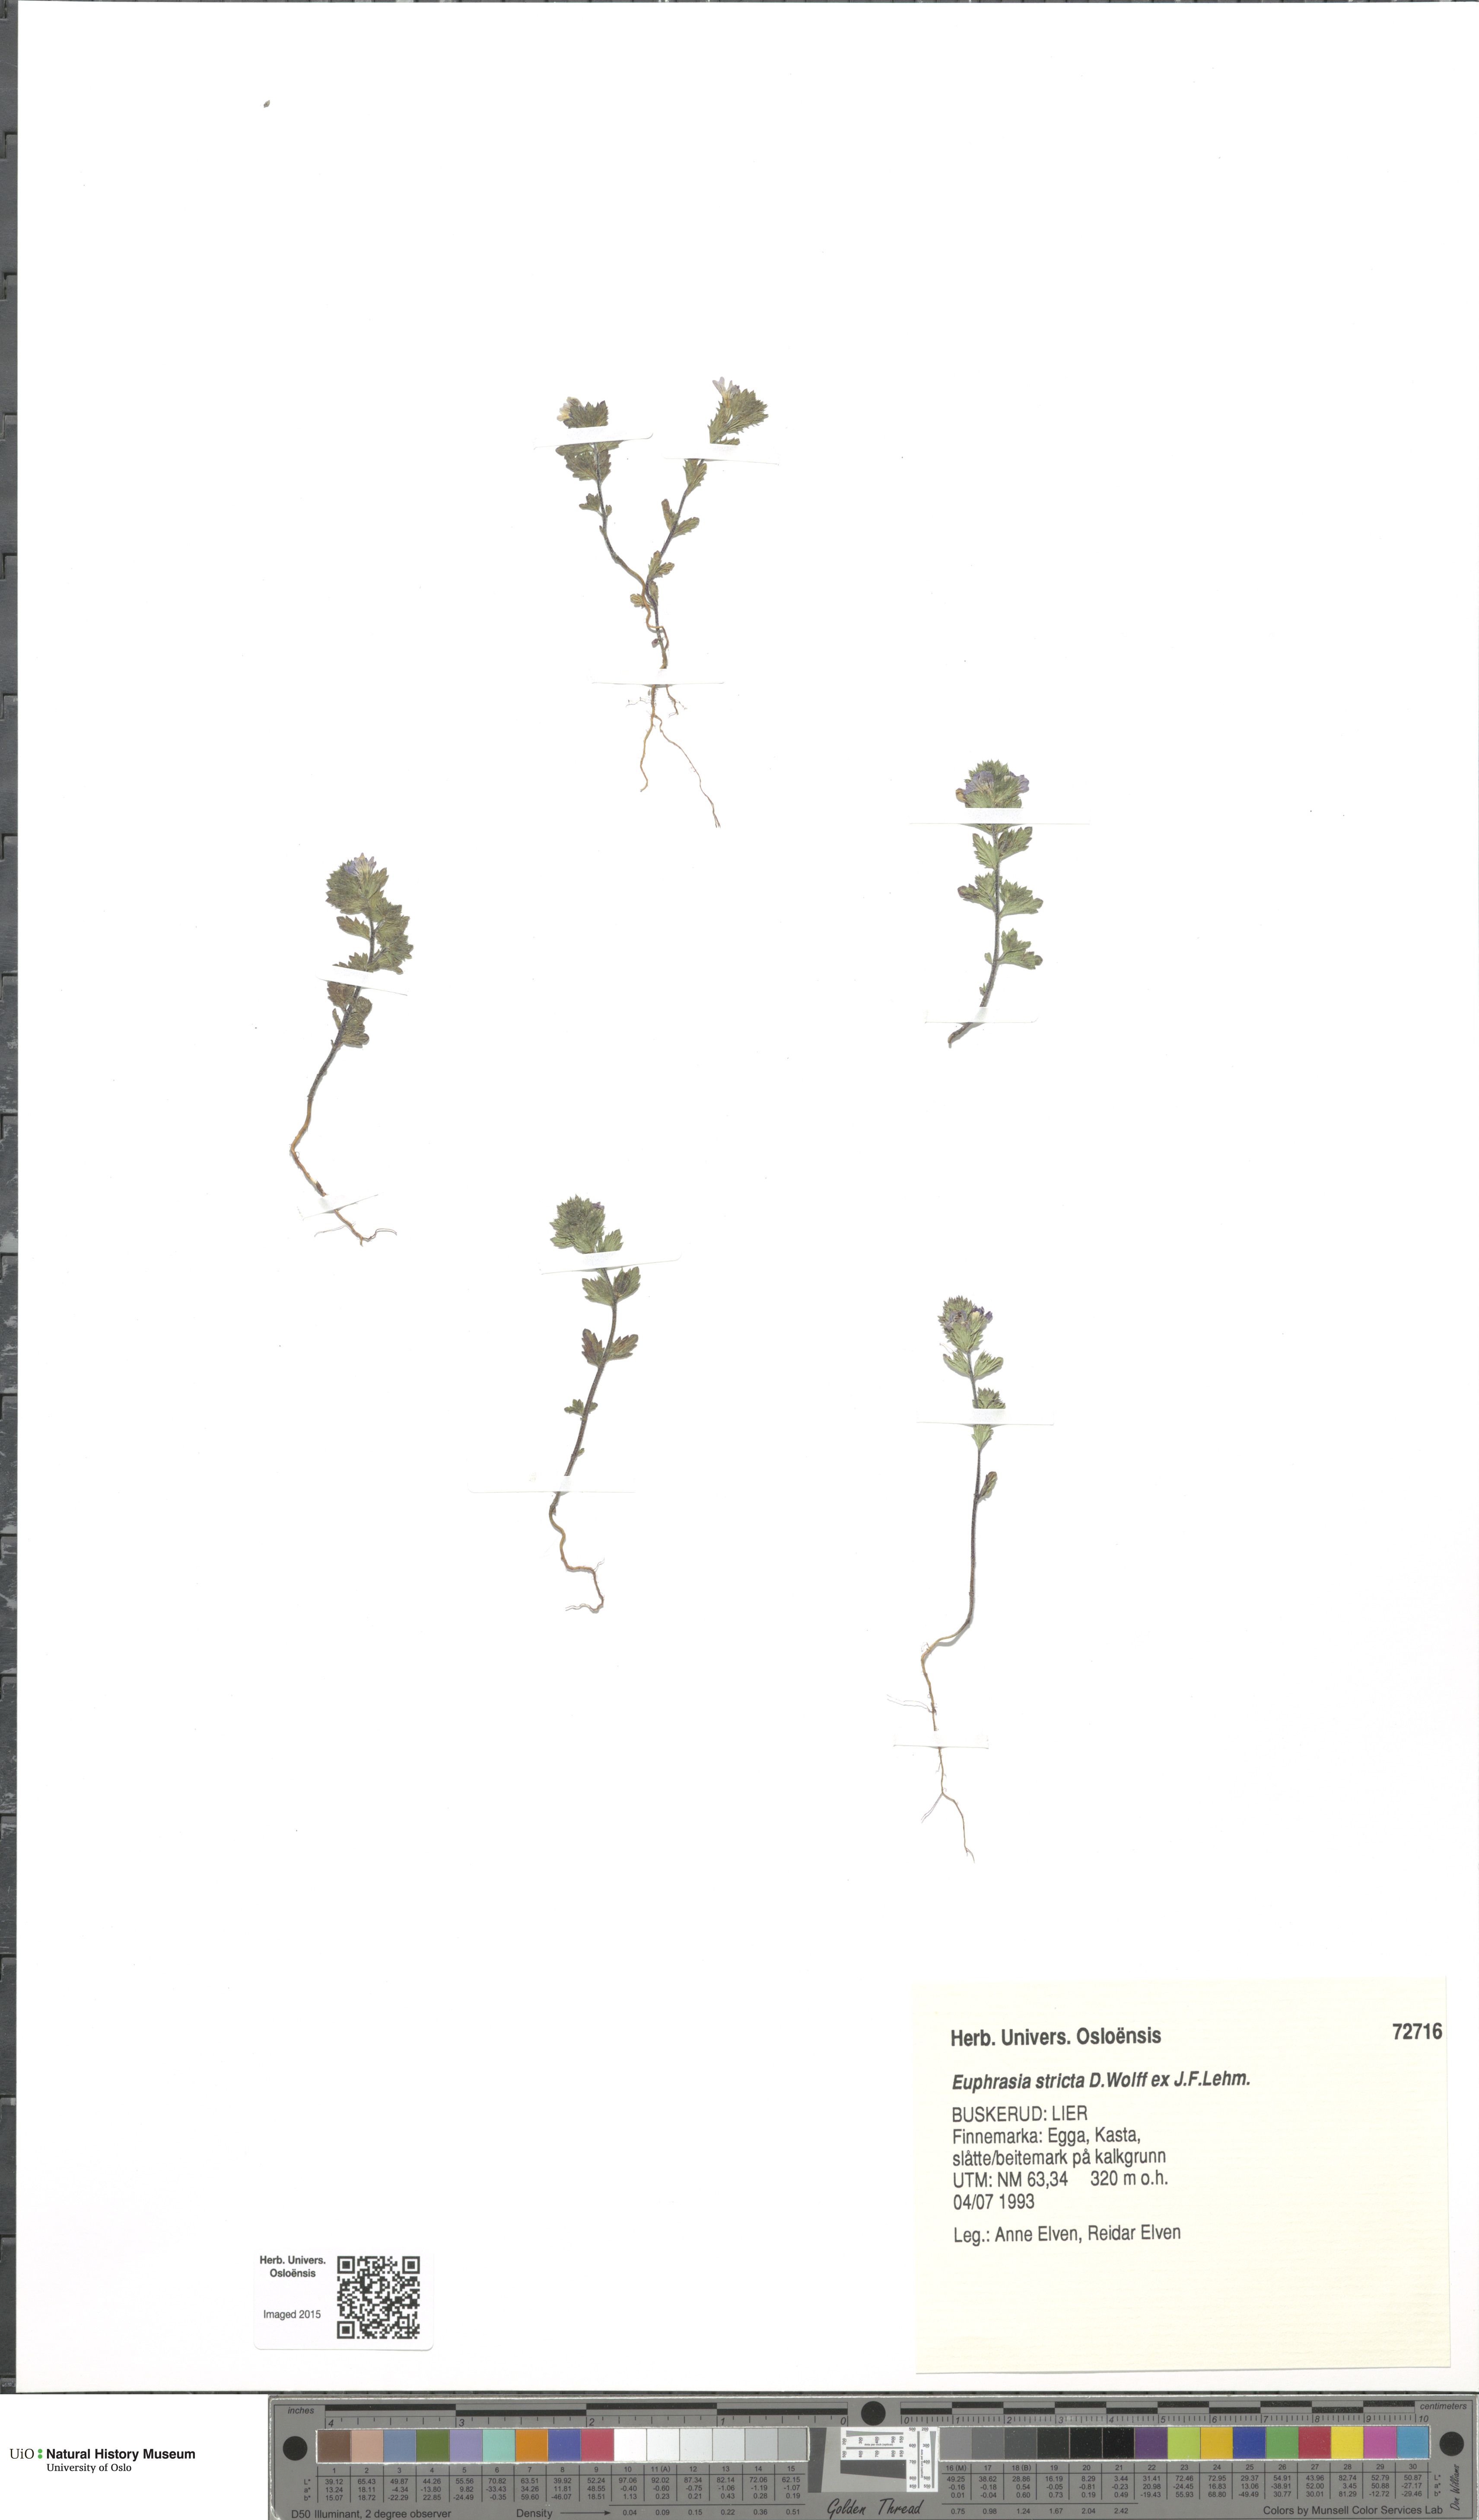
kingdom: Plantae
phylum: Tracheophyta
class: Magnoliopsida
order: Lamiales
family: Orobanchaceae
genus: Euphrasia
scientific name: Euphrasia stricta
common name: Drug eyebright
